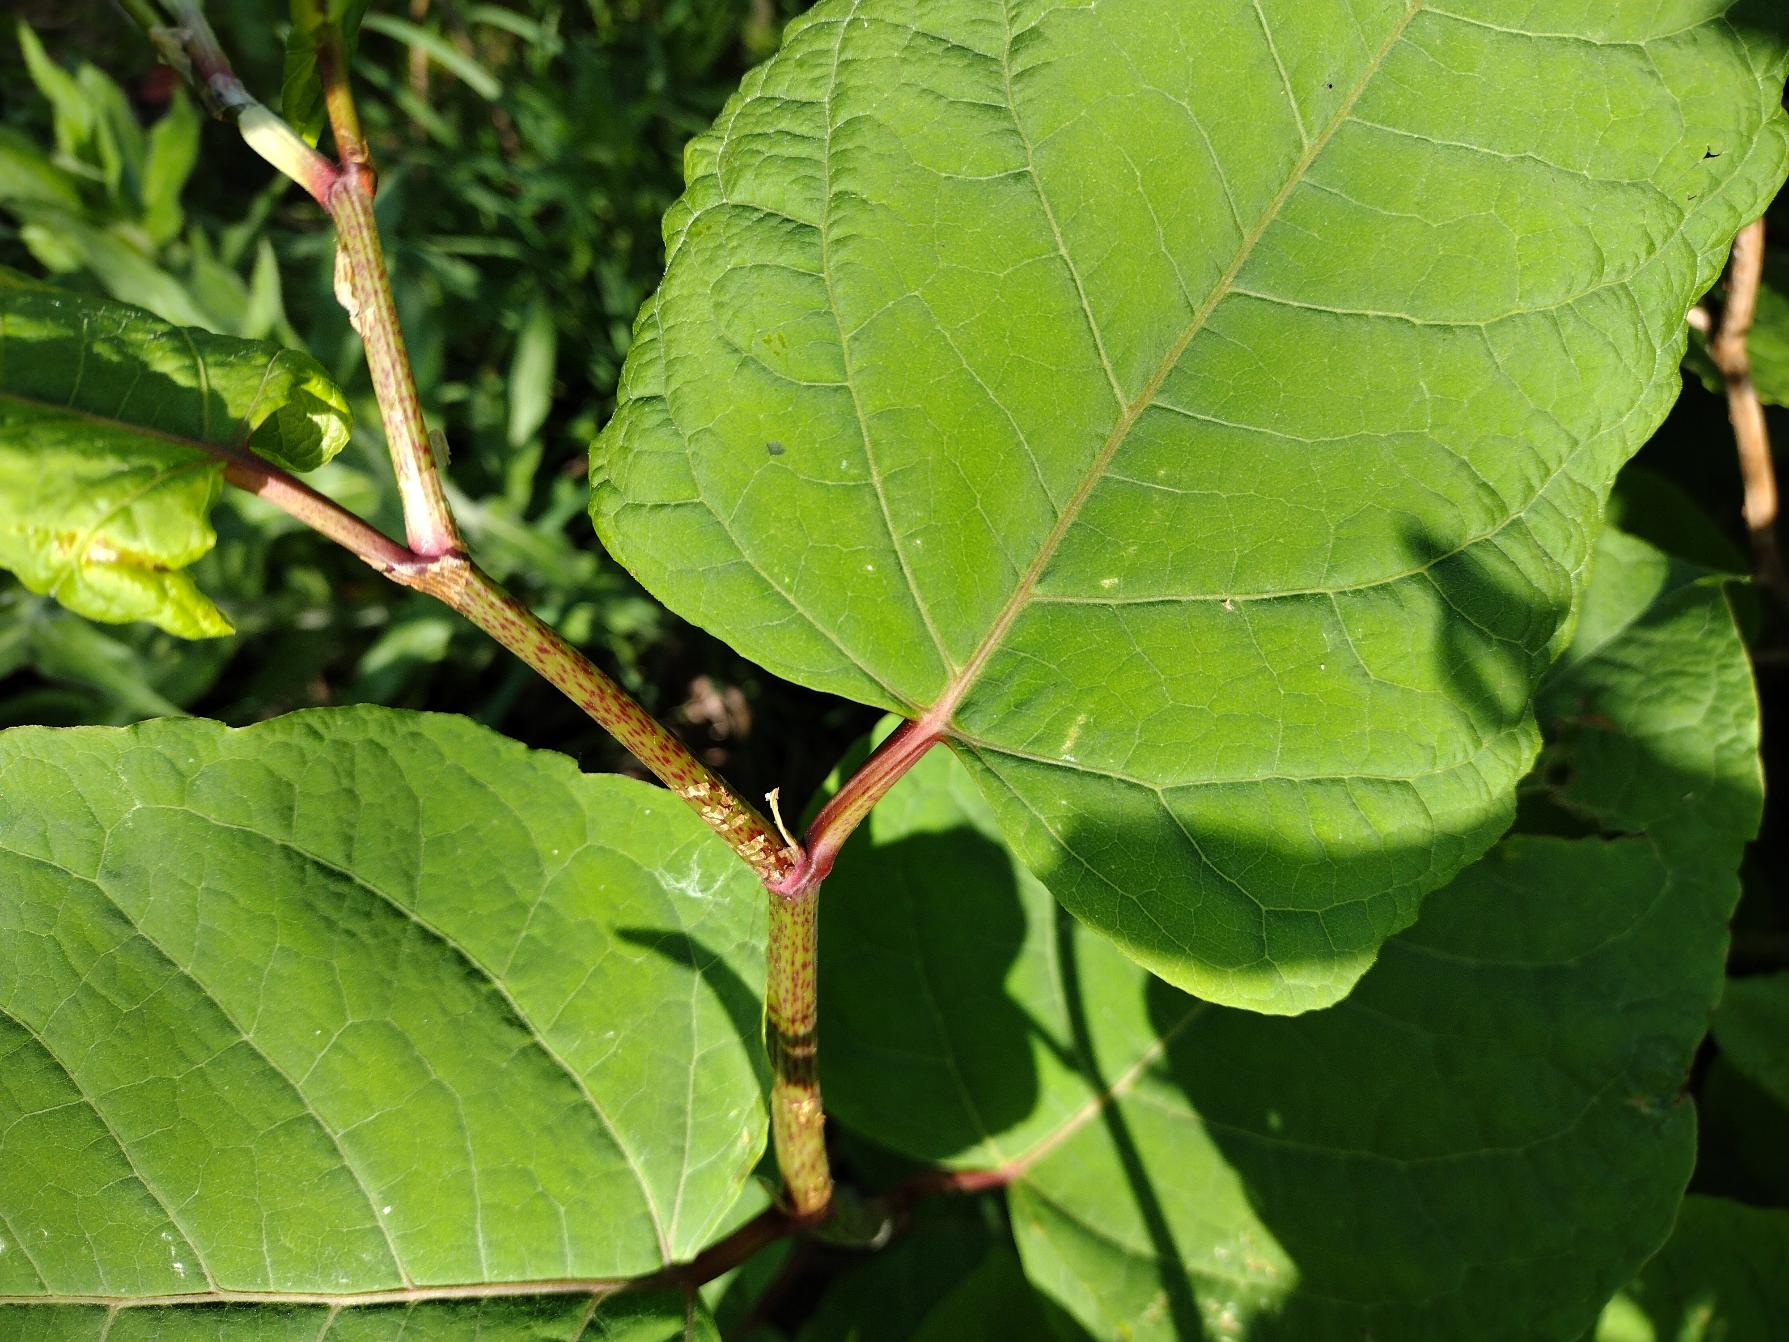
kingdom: Plantae
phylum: Tracheophyta
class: Magnoliopsida
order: Caryophyllales
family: Polygonaceae
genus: Reynoutria
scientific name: Reynoutria japonica
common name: Japan-pileurt
